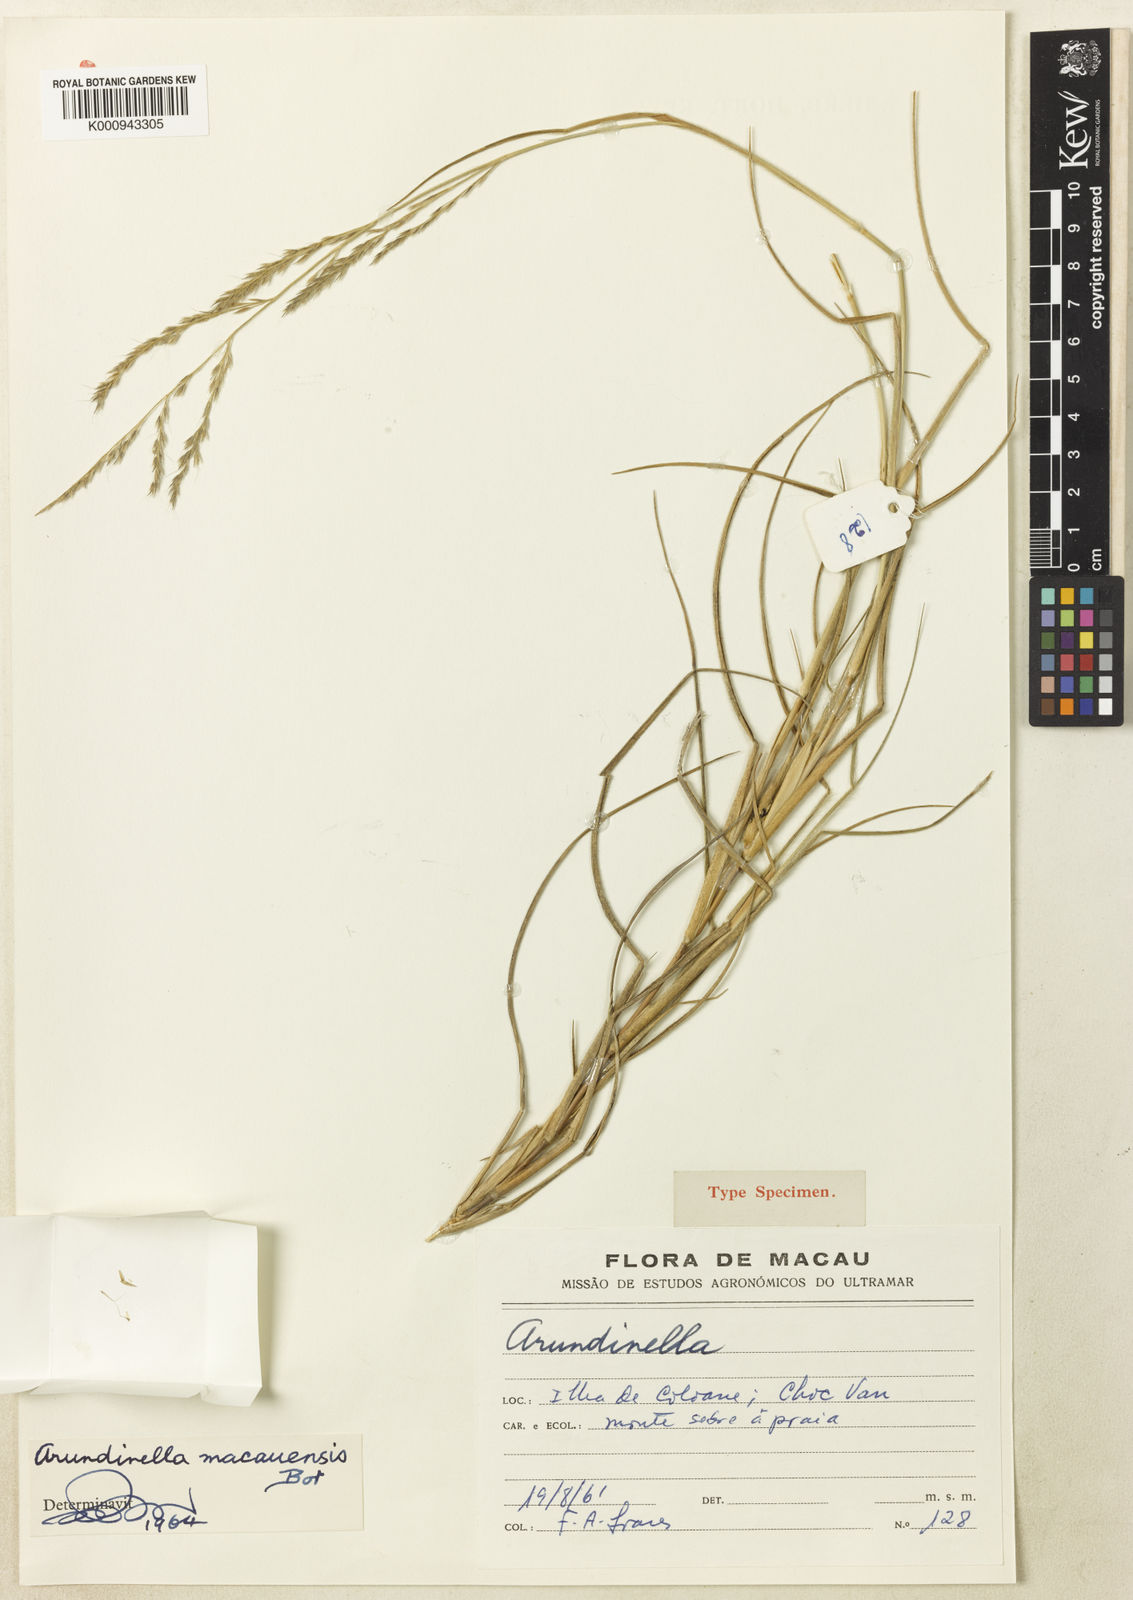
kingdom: Plantae
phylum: Tracheophyta
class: Liliopsida
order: Poales
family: Poaceae
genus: Arundinella
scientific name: Arundinella setosa
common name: Reed grass
